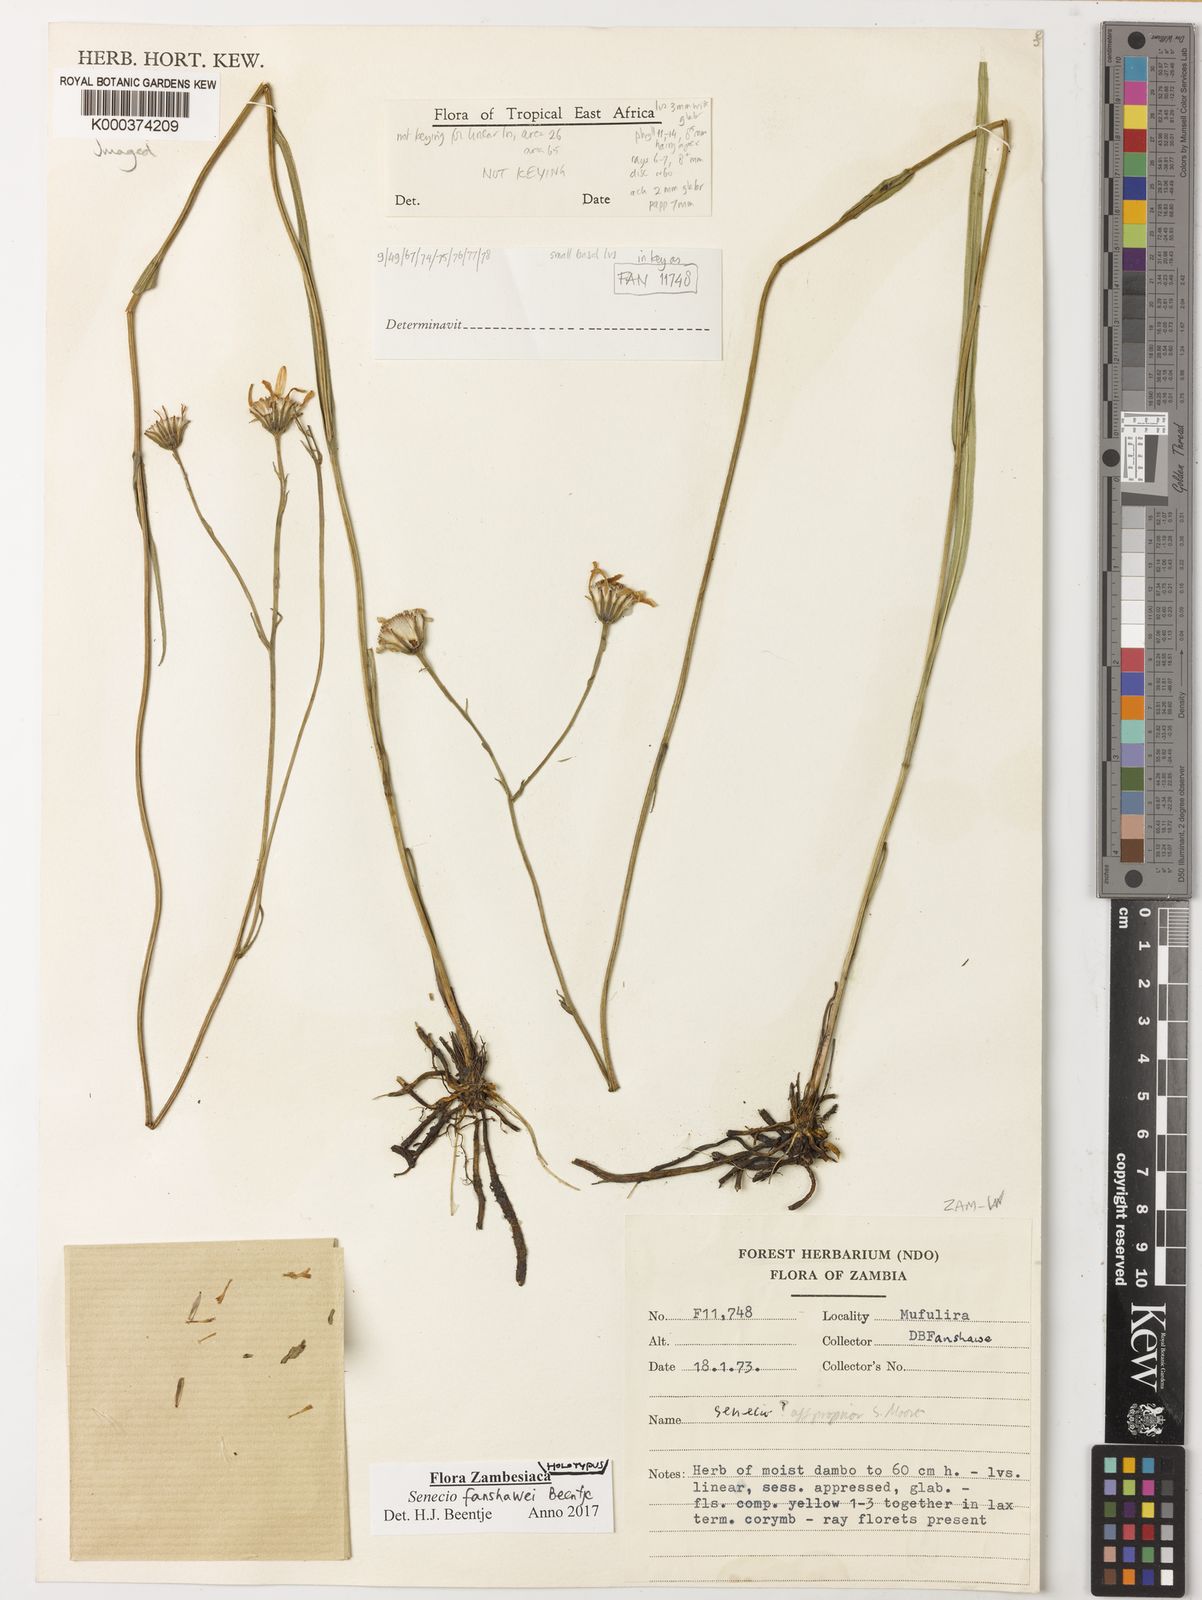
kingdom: Plantae
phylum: Tracheophyta
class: Magnoliopsida
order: Asterales
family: Asteraceae
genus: Senecio
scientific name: Senecio
